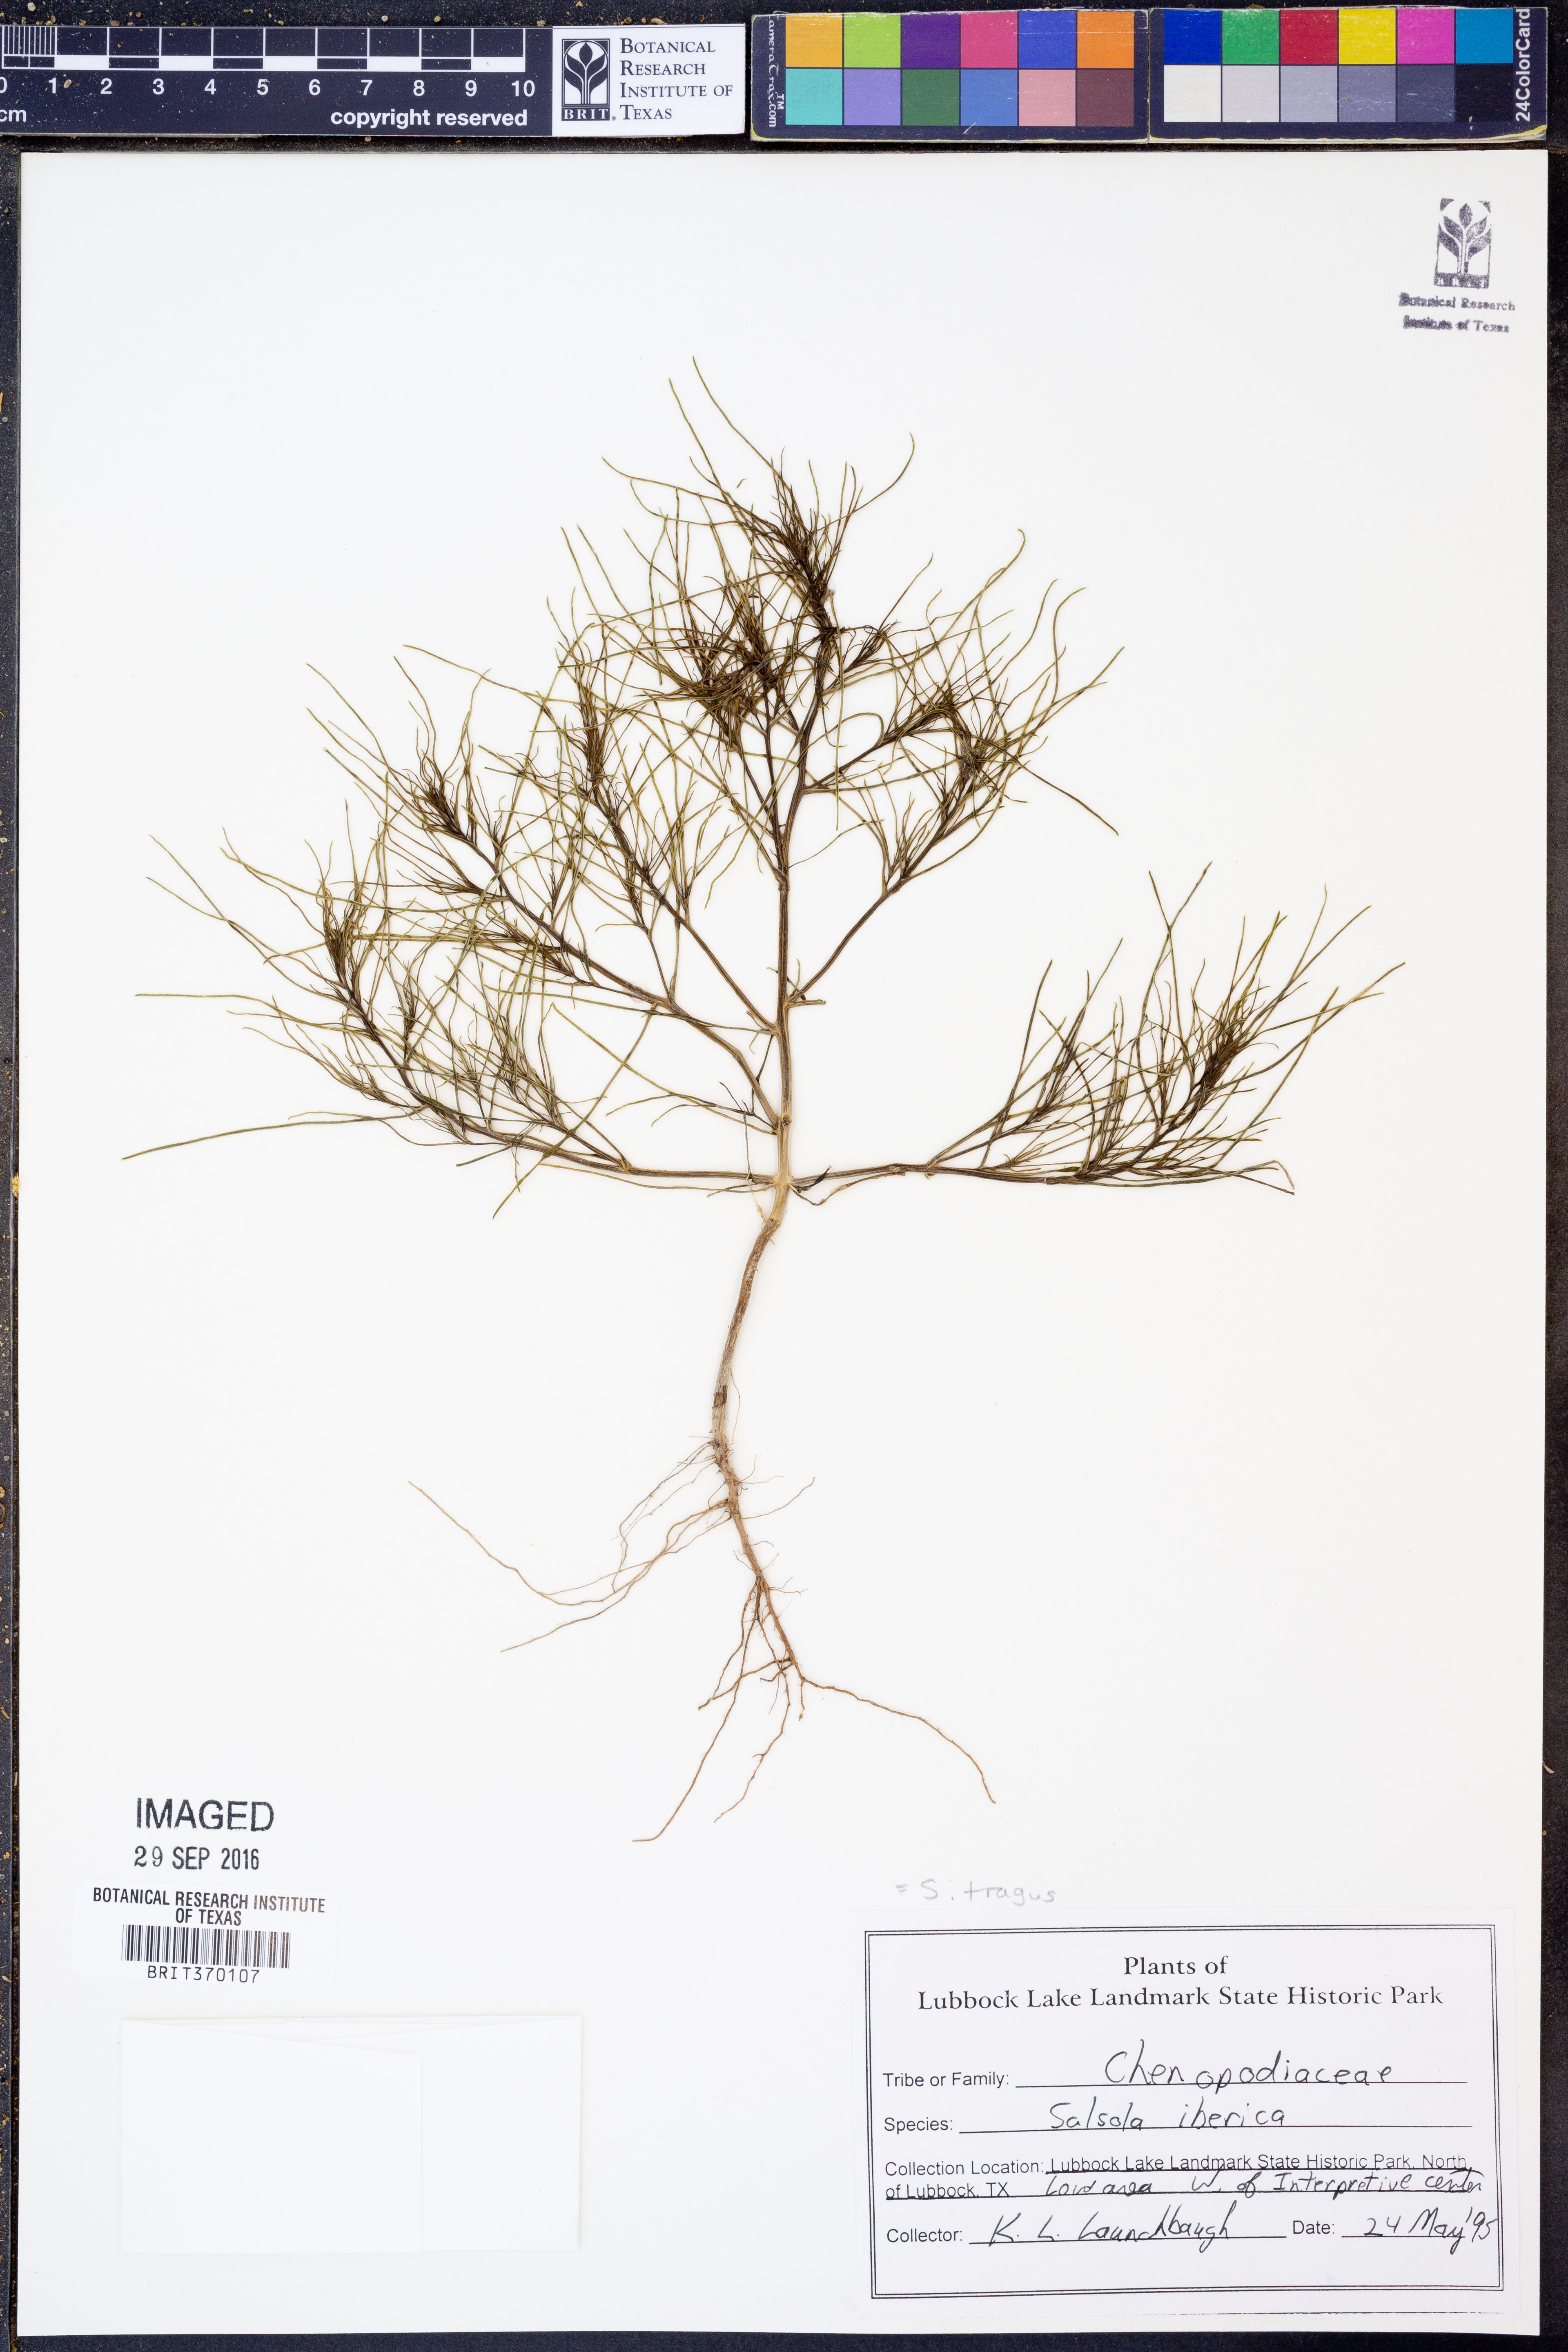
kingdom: Plantae
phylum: Tracheophyta
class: Magnoliopsida
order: Caryophyllales
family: Amaranthaceae
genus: Salsola
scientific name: Salsola tragus
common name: Prickly russian thistle
